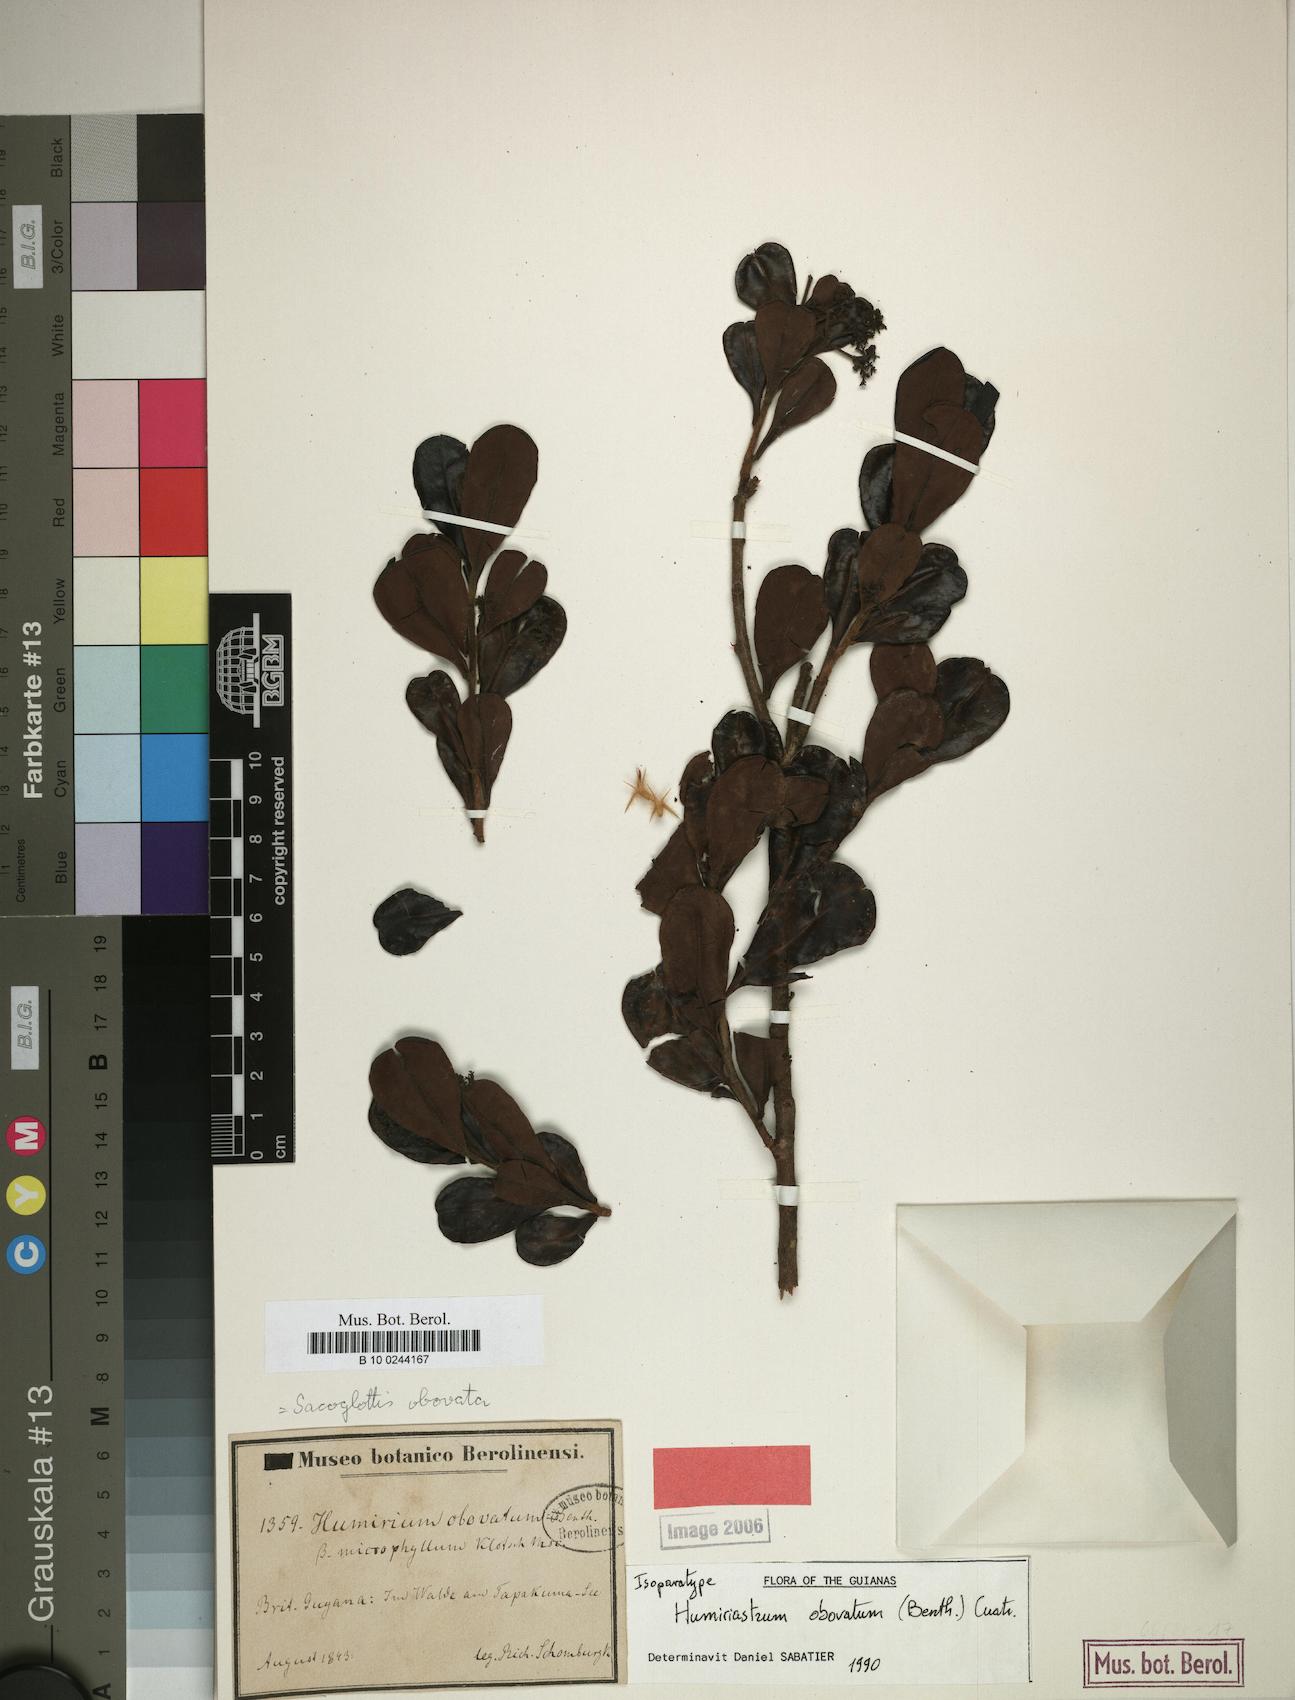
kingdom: Plantae
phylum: Tracheophyta
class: Magnoliopsida
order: Malpighiales
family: Humiriaceae
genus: Humiriastrum
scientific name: Humiriastrum obovatum
